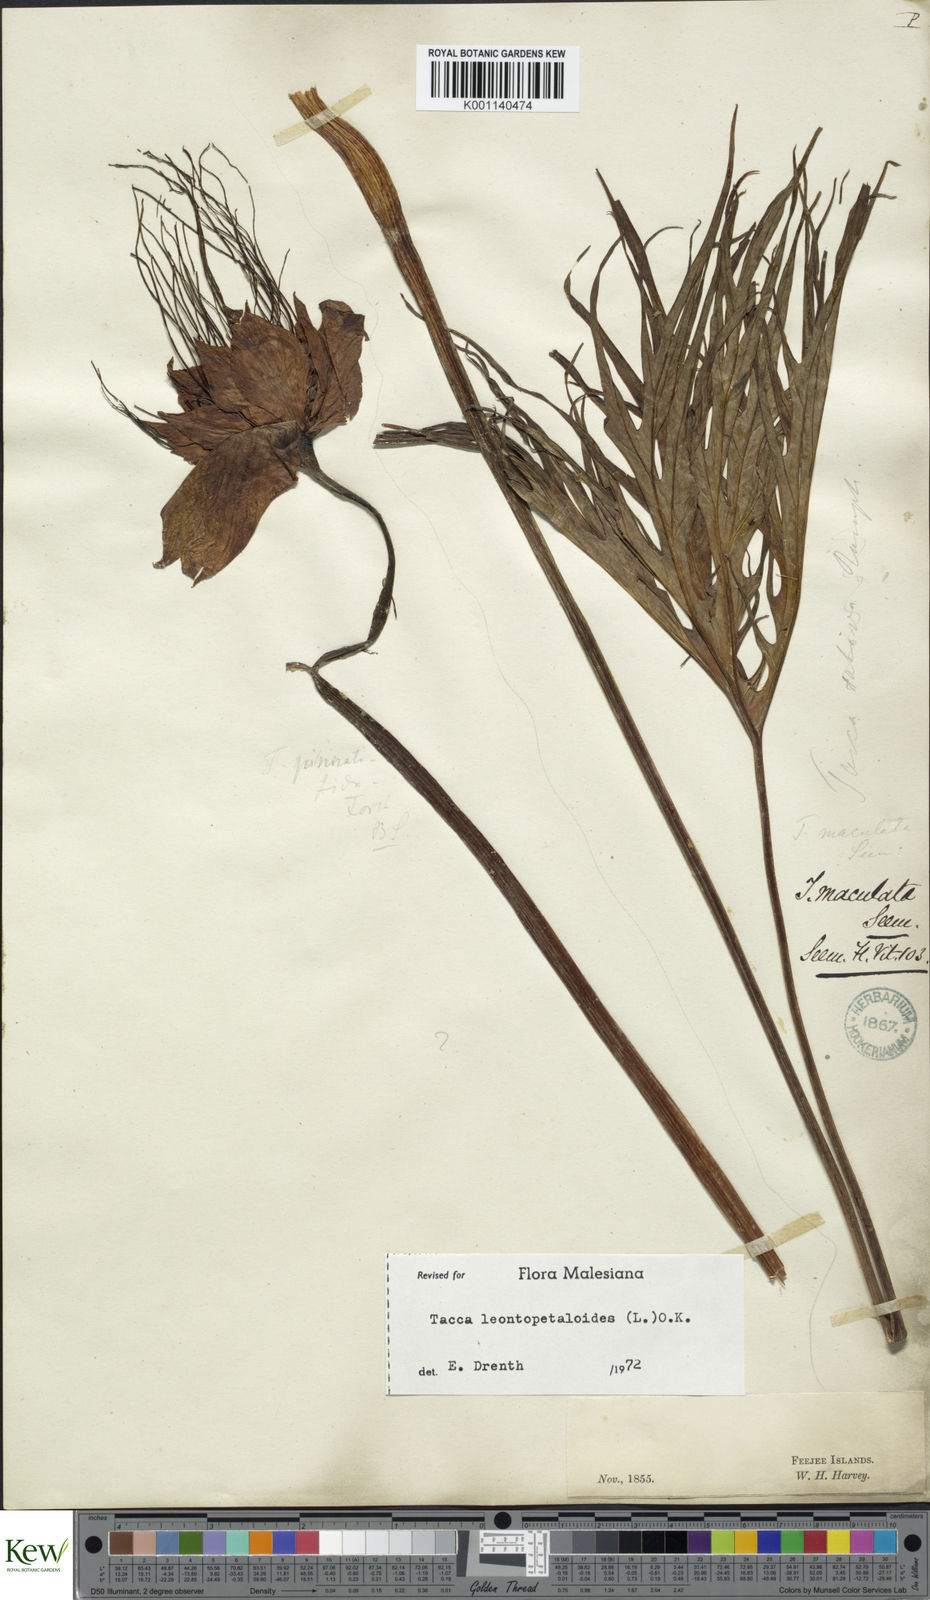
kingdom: Plantae
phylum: Tracheophyta
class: Liliopsida
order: Dioscoreales
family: Dioscoreaceae
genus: Tacca
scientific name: Tacca leontopetaloides
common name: Arrowroot
